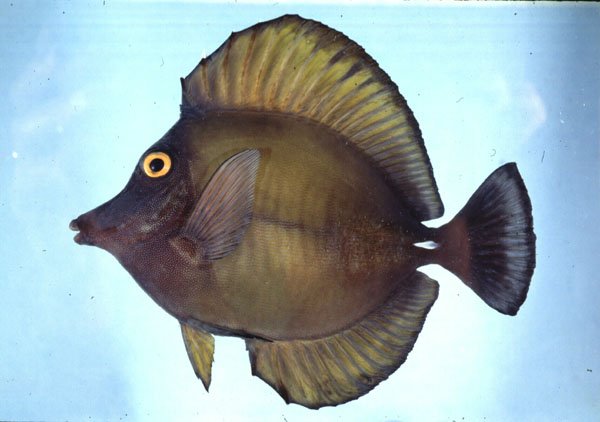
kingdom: Animalia
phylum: Chordata
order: Perciformes
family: Acanthuridae
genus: Zebrasoma
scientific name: Zebrasoma scopas
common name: Twotone tang
